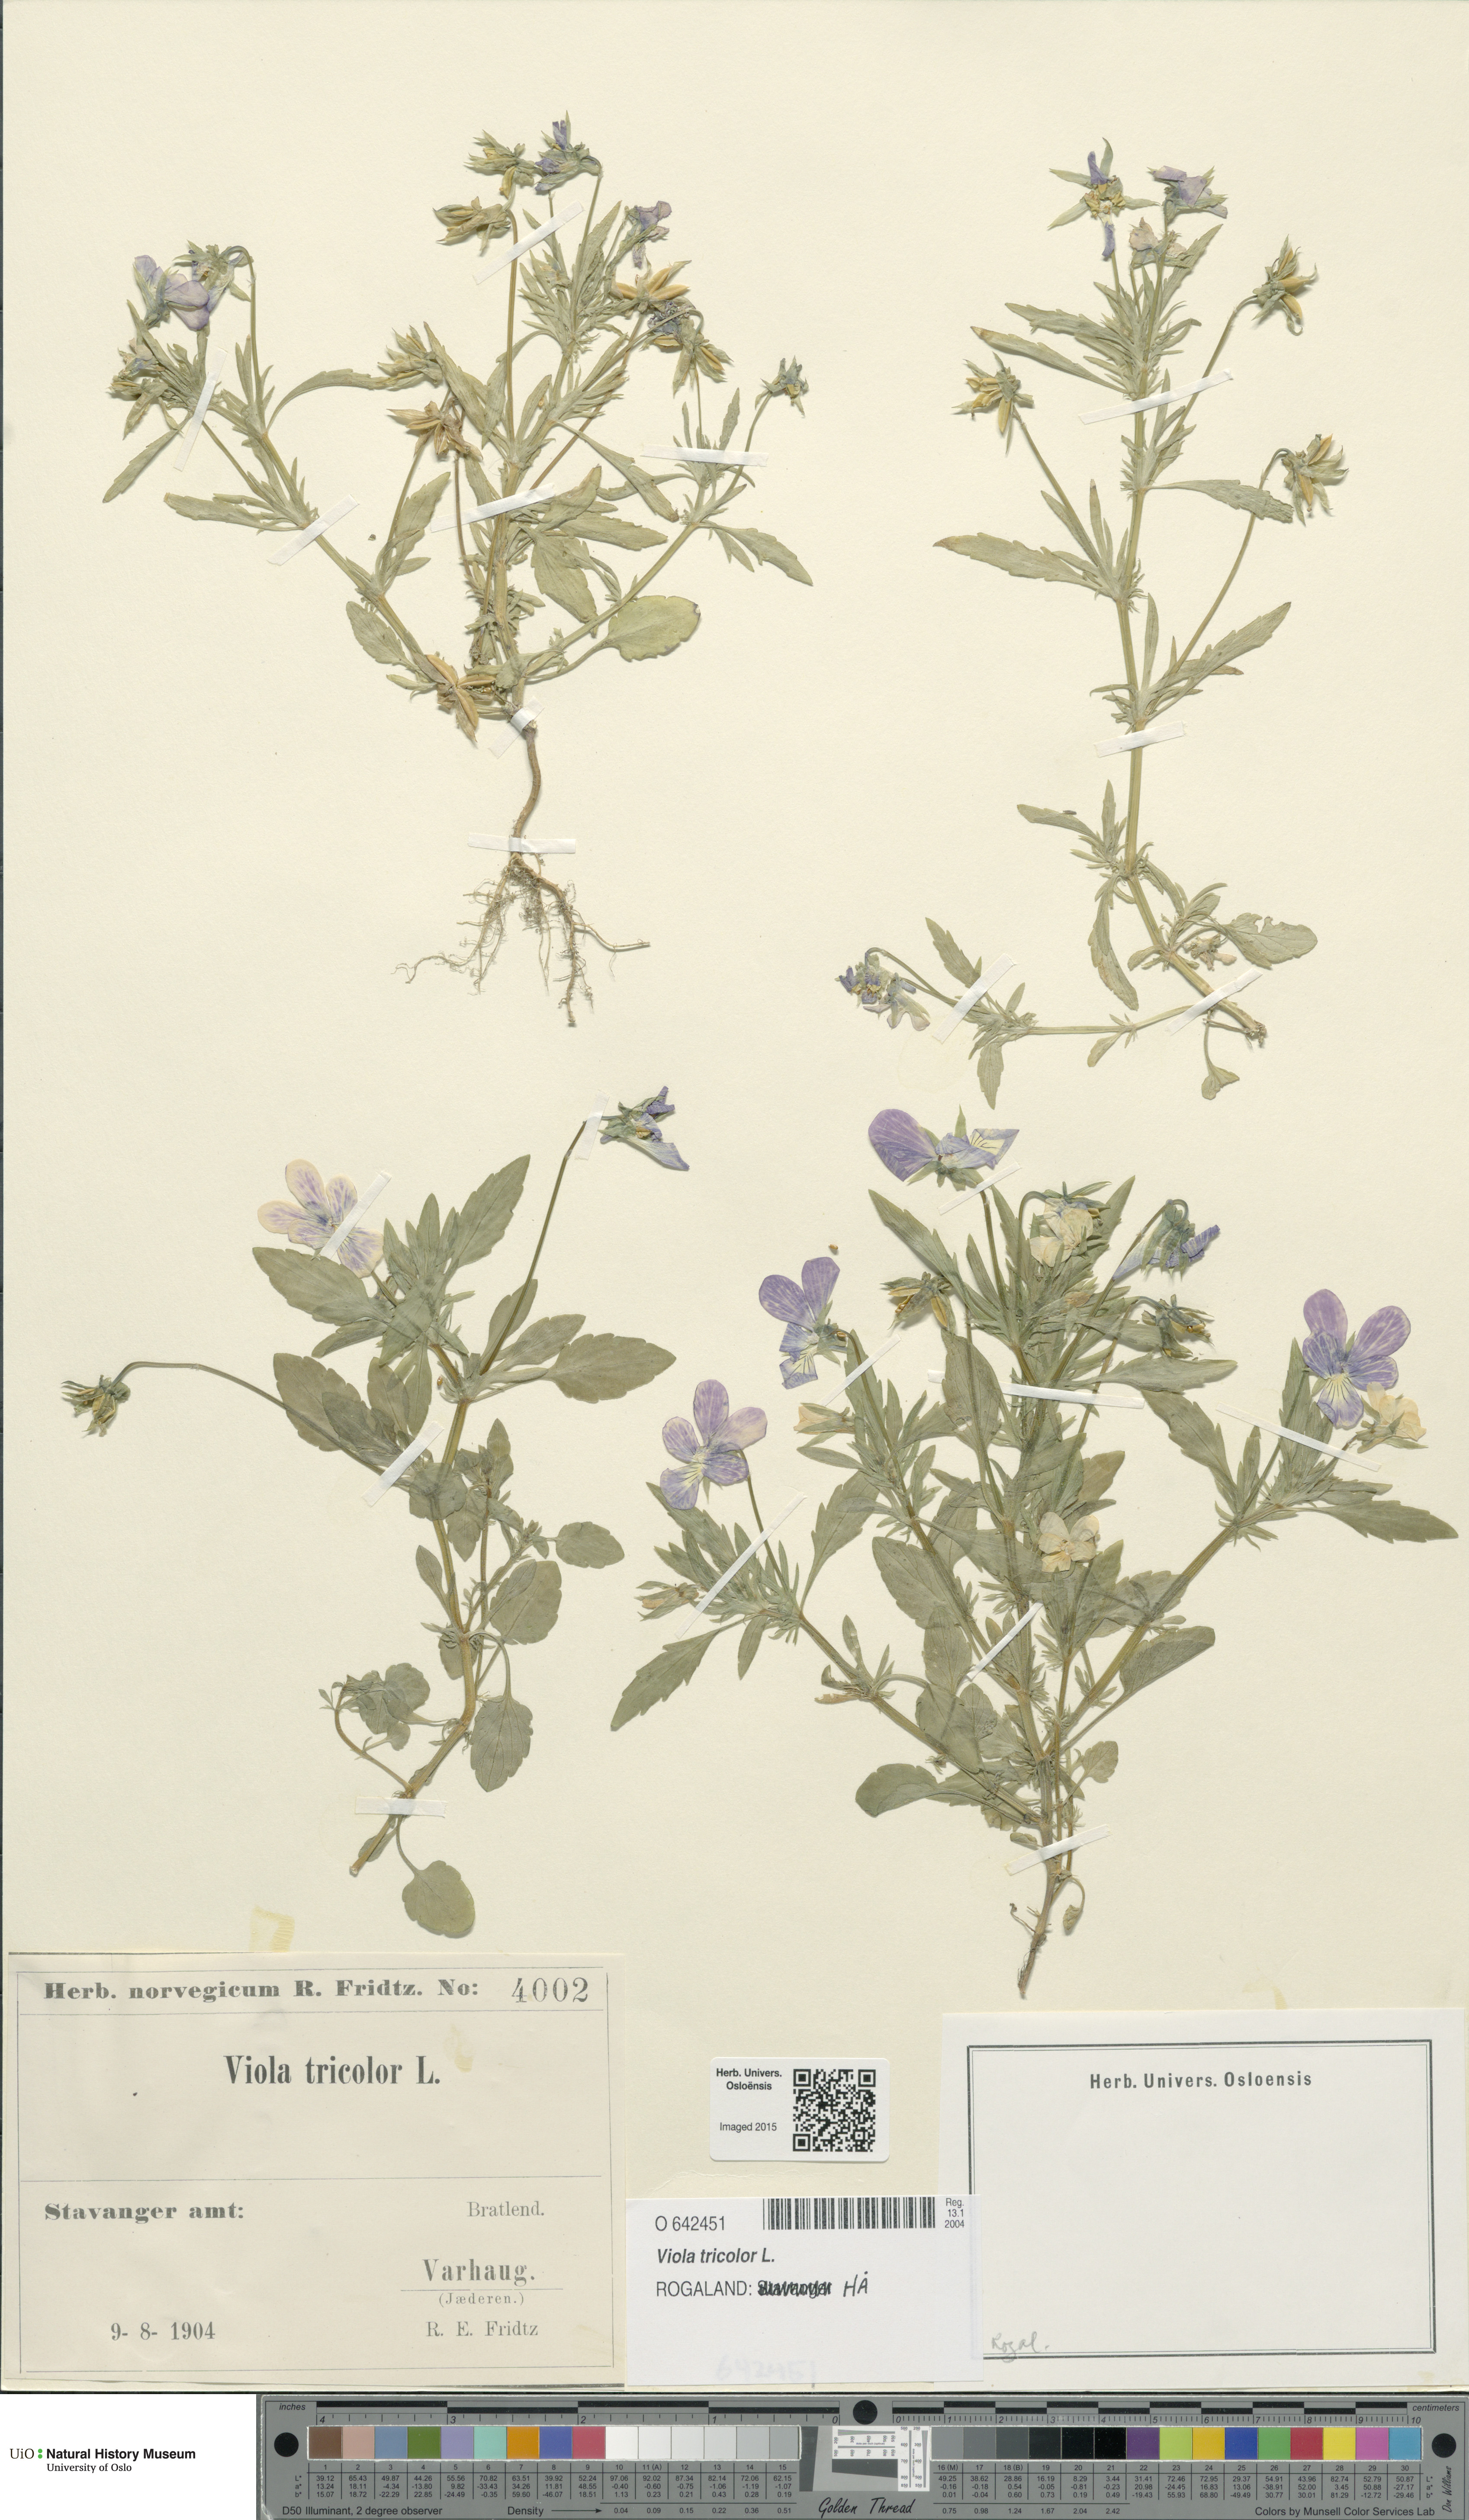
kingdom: Plantae
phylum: Tracheophyta
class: Magnoliopsida
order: Malpighiales
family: Violaceae
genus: Viola
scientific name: Viola tricolor
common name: Pansy
